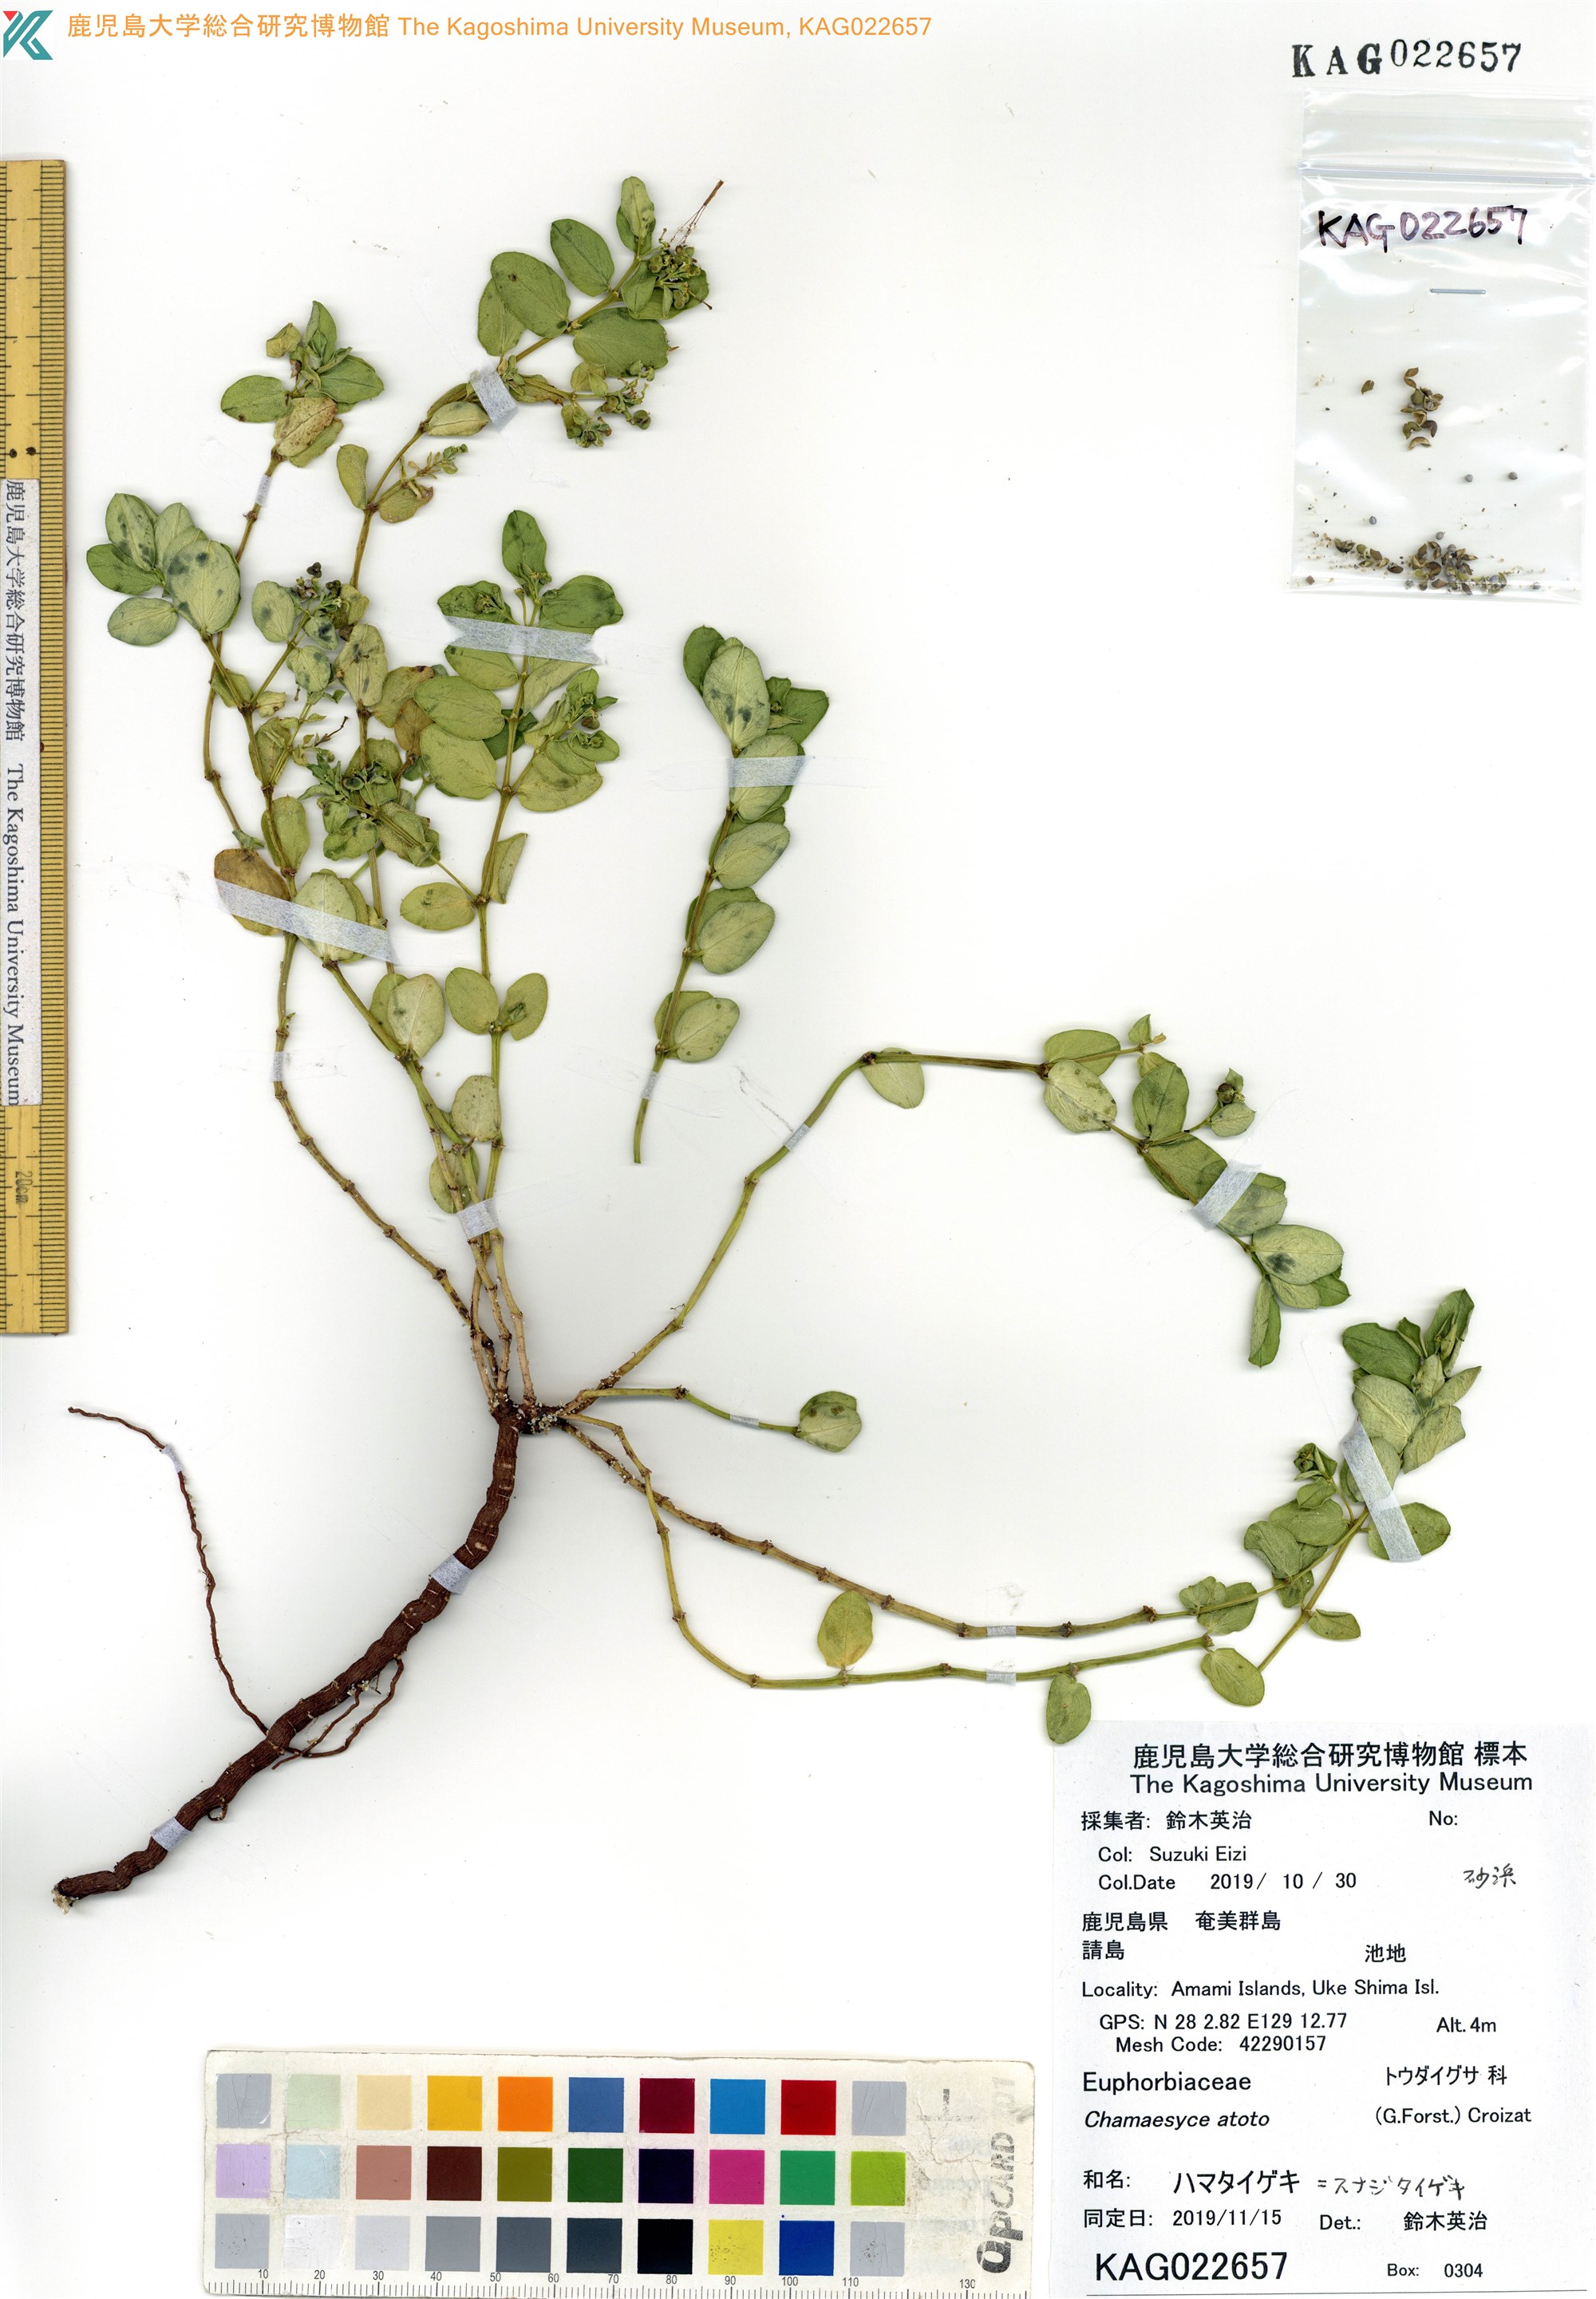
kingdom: Plantae
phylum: Tracheophyta
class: Magnoliopsida
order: Malpighiales
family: Euphorbiaceae
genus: Euphorbia
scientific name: Euphorbia atoto
